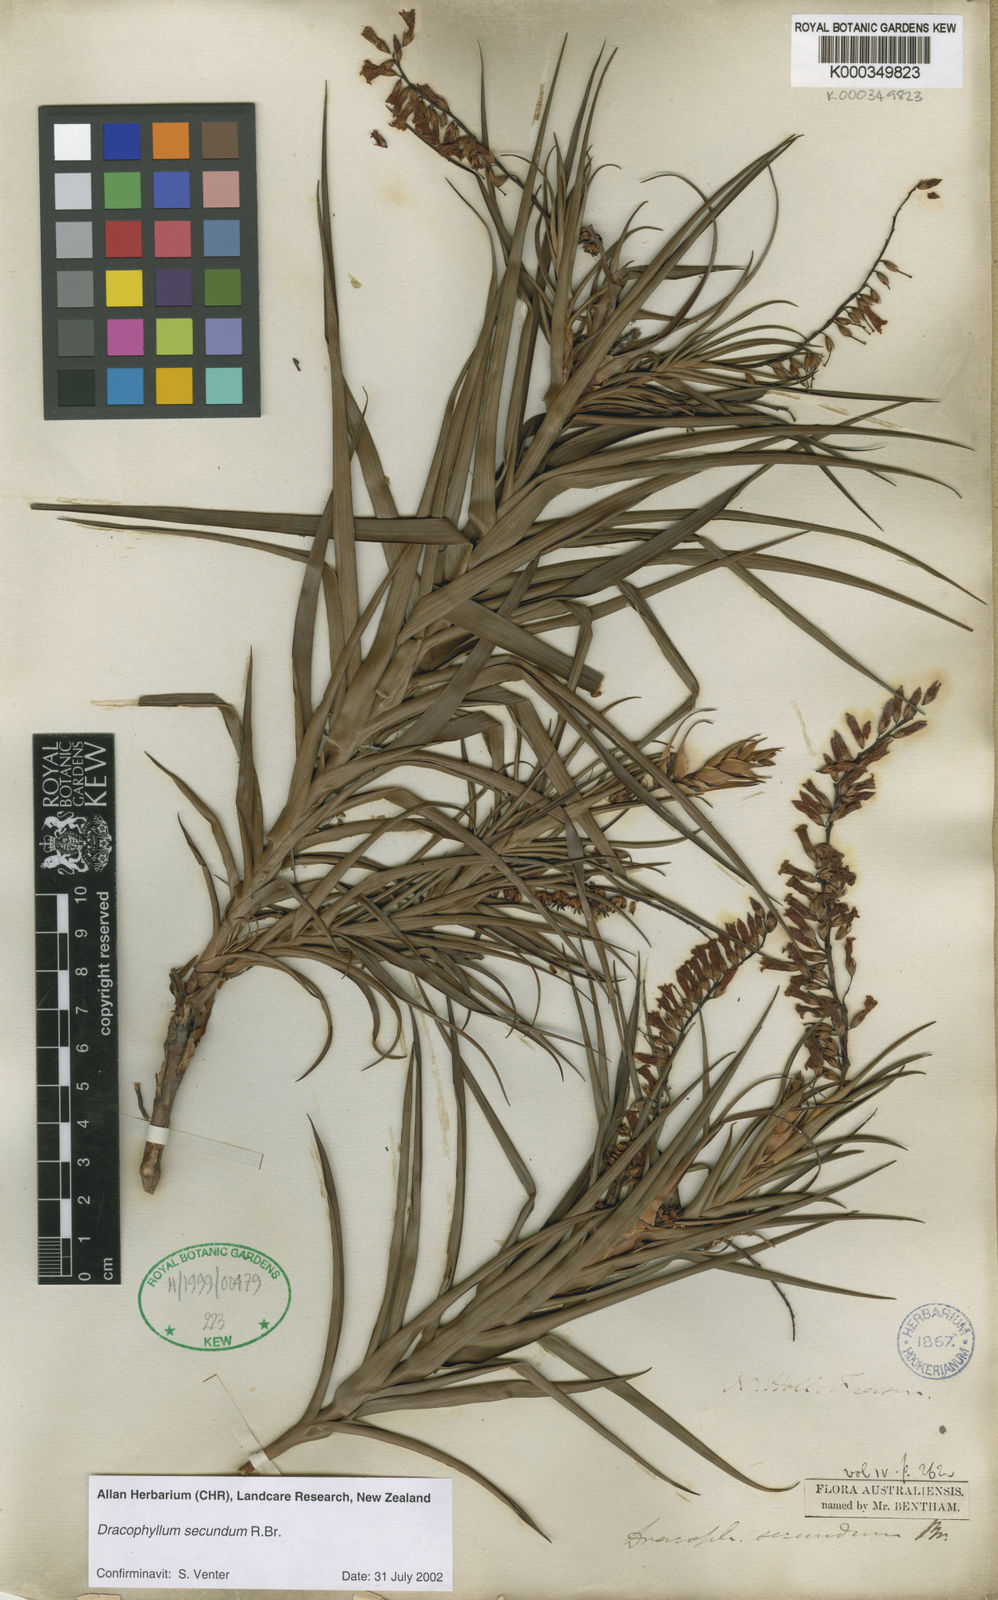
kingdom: Plantae
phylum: Tracheophyta
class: Magnoliopsida
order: Ericales
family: Ericaceae
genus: Dracophyllum
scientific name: Dracophyllum secundum
